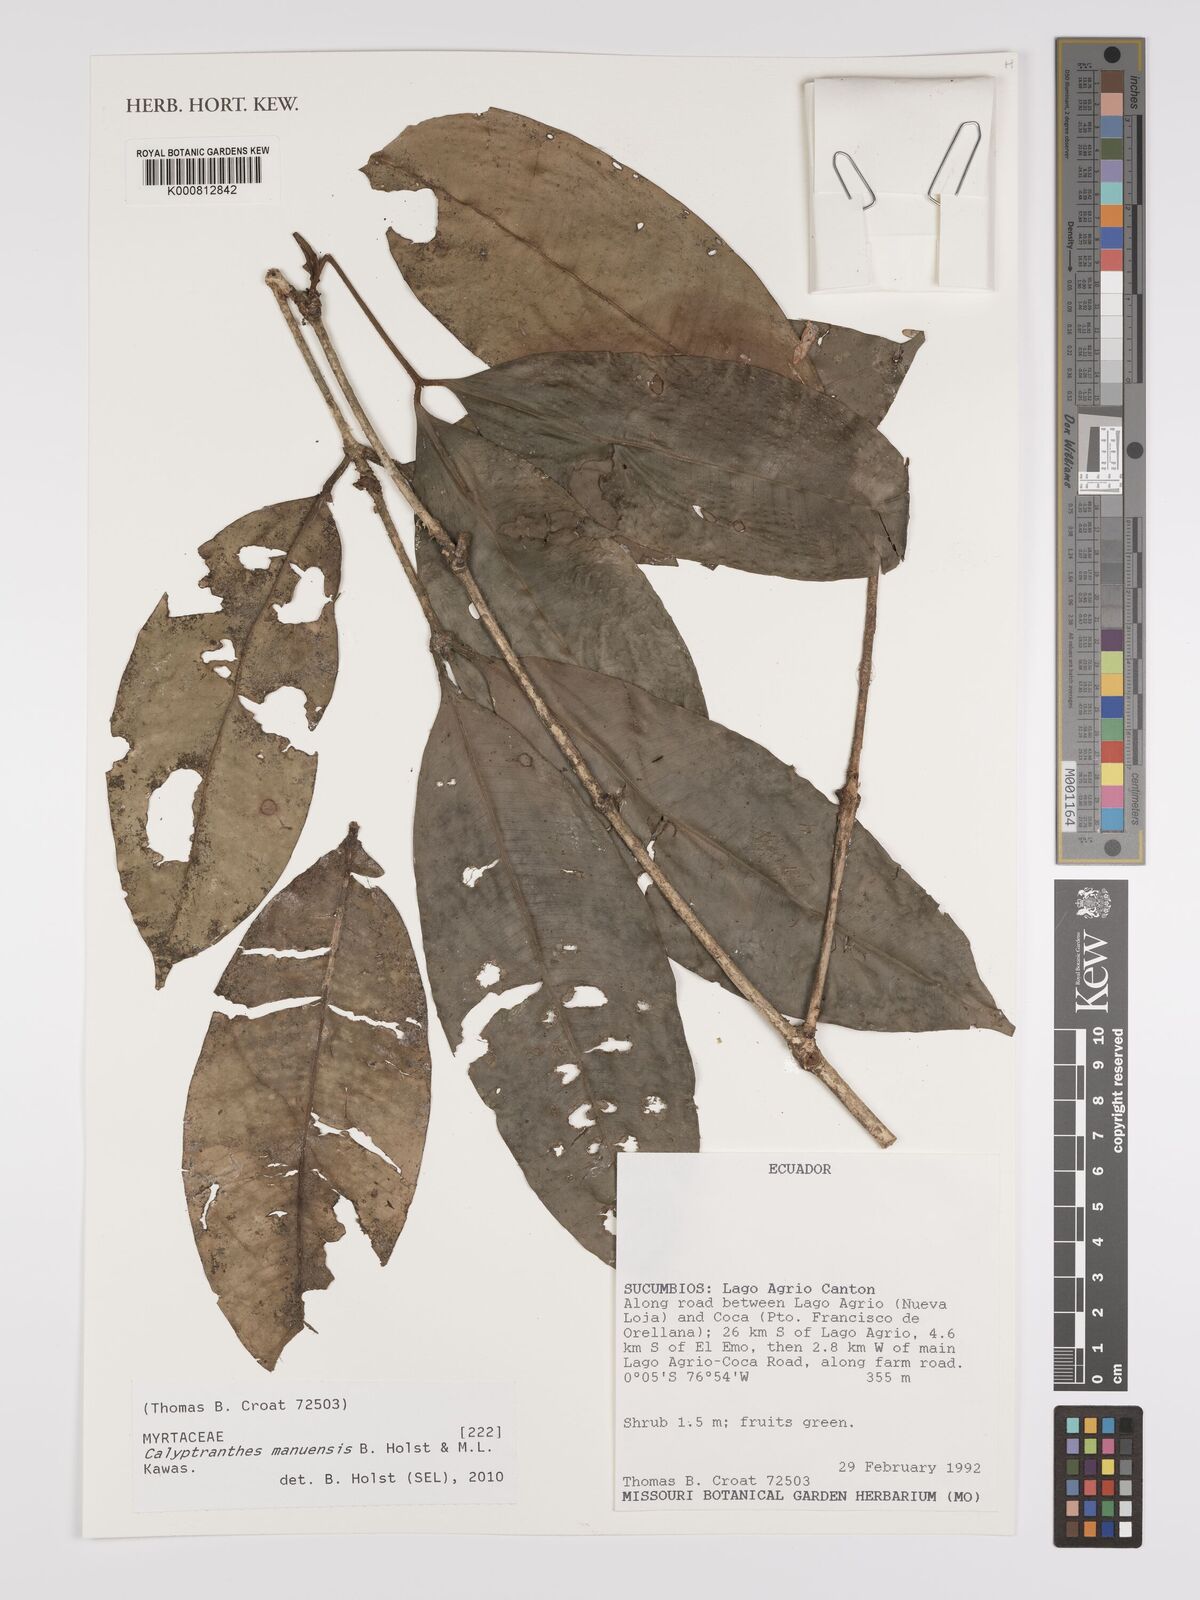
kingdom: Plantae
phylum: Tracheophyta
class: Magnoliopsida
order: Myrtales
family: Myrtaceae
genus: Myrcia
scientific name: Myrcia manuensis
